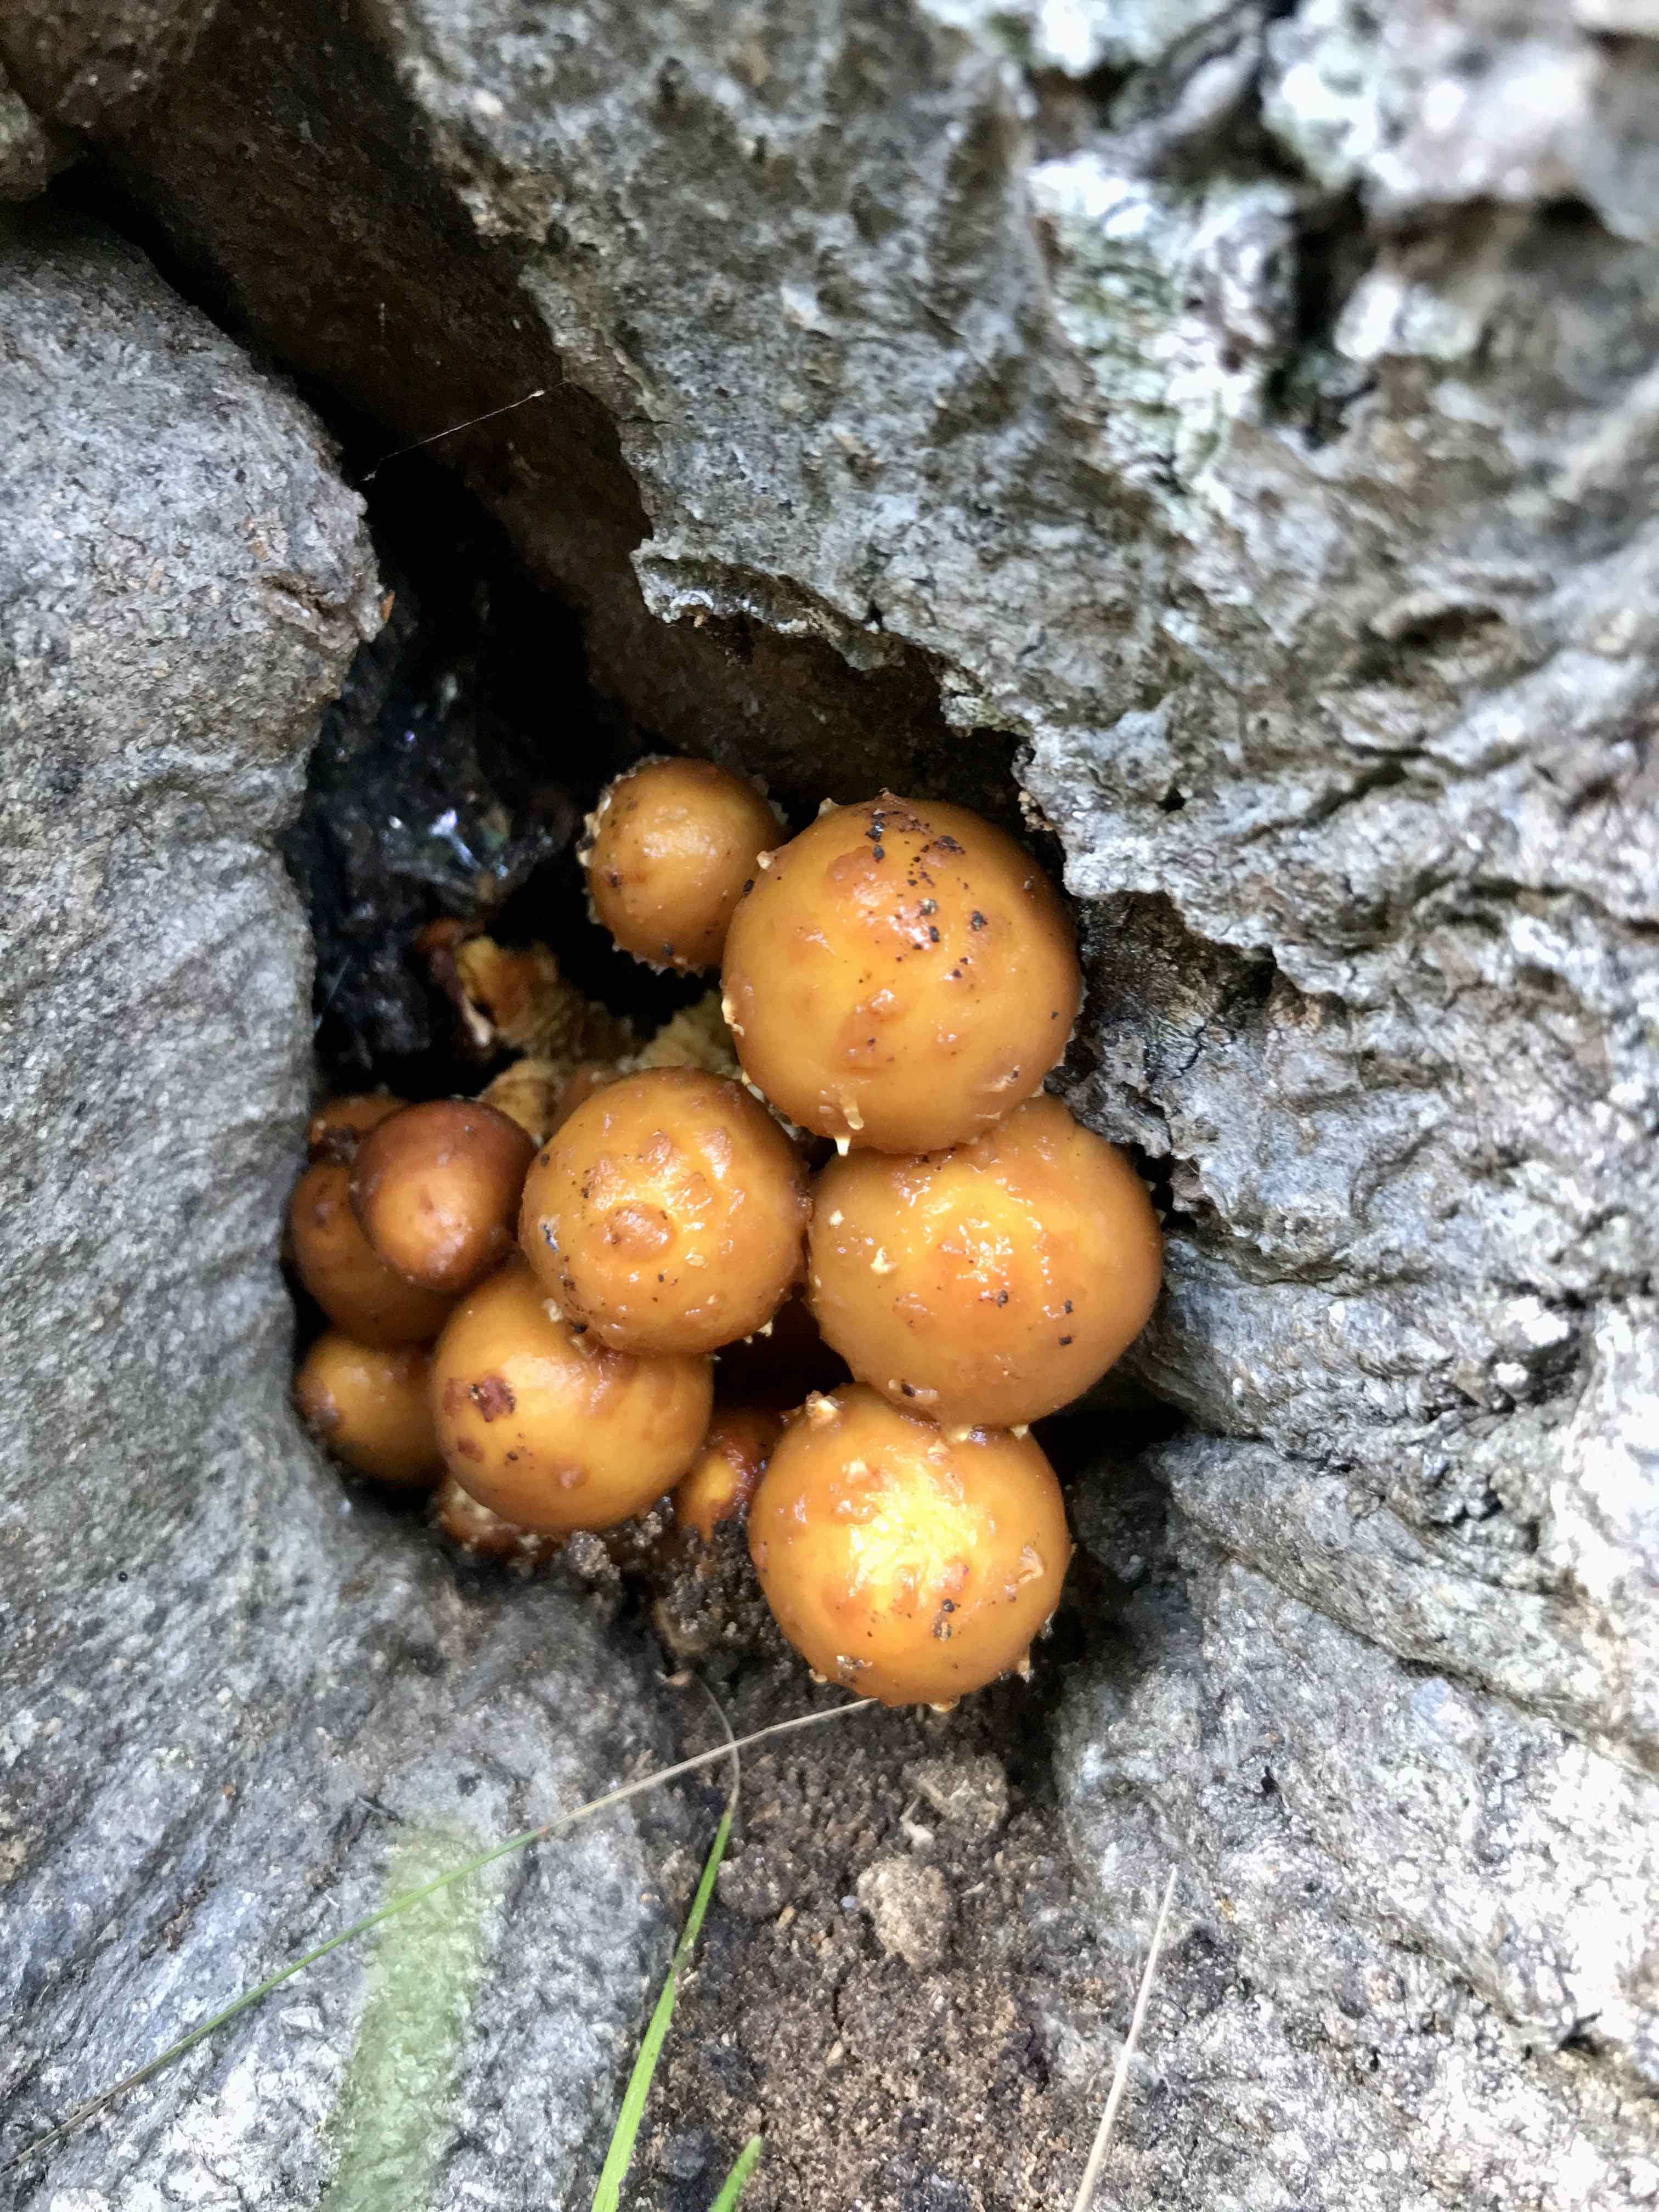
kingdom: Fungi
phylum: Basidiomycota
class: Agaricomycetes
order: Agaricales
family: Strophariaceae
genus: Pholiota
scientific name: Pholiota adiposa
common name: højtsiddende skælhat
